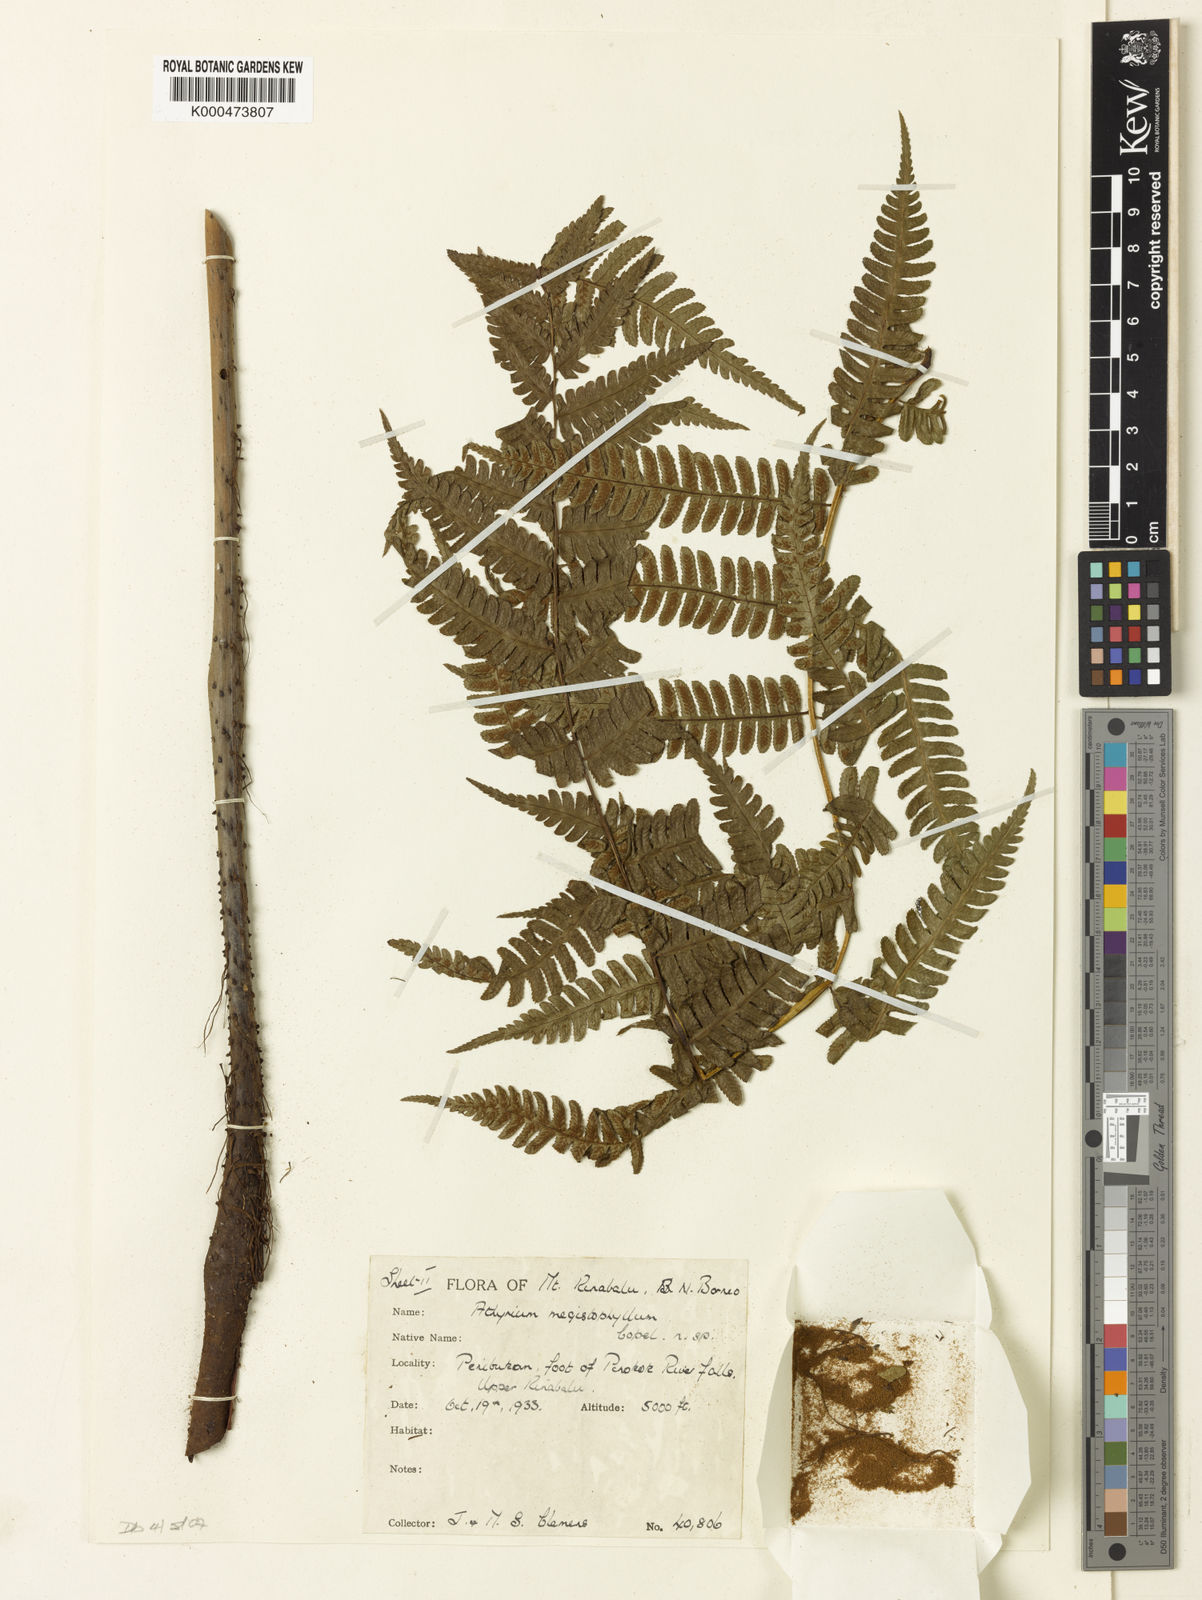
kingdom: Plantae
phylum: Tracheophyta
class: Polypodiopsida
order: Polypodiales
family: Athyriaceae
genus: Diplazium
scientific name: Diplazium megistophyllum
